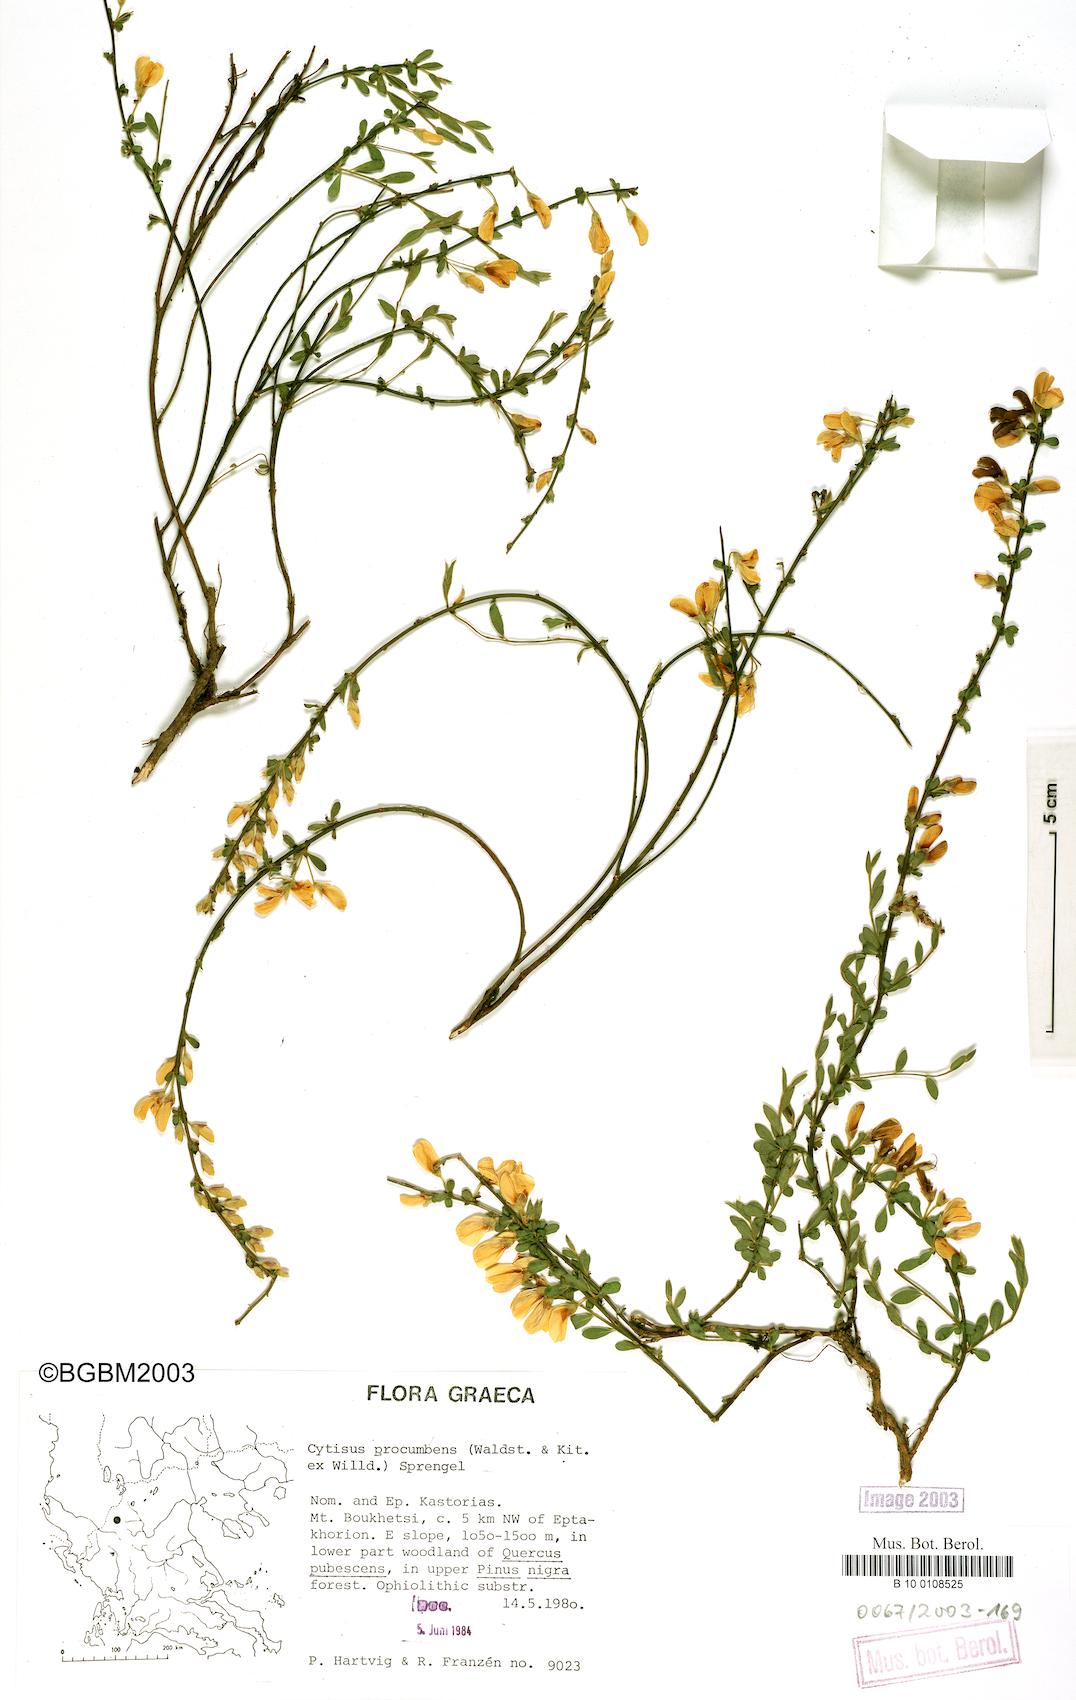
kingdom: Plantae
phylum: Tracheophyta
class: Magnoliopsida
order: Fabales
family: Fabaceae
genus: Cytisus
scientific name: Cytisus procumbens
